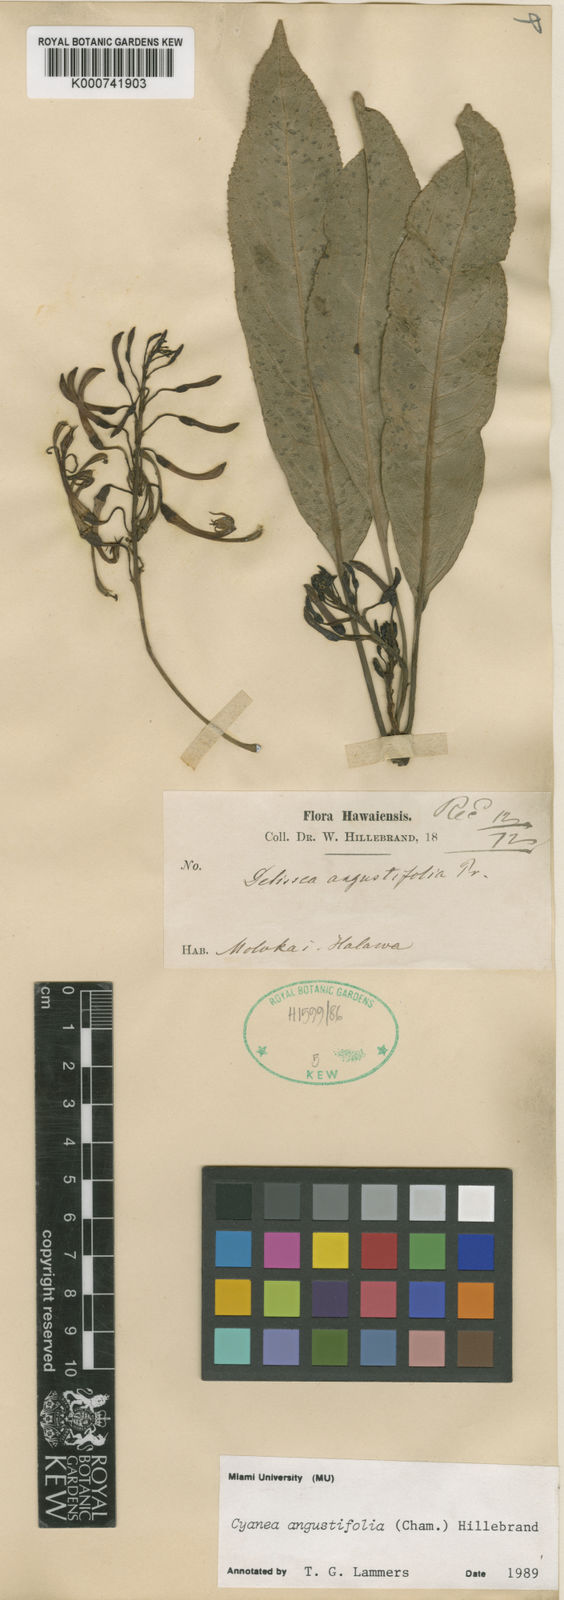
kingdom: Plantae
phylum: Tracheophyta
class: Magnoliopsida
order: Asterales
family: Campanulaceae
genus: Cyanea
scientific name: Cyanea angustifolia
